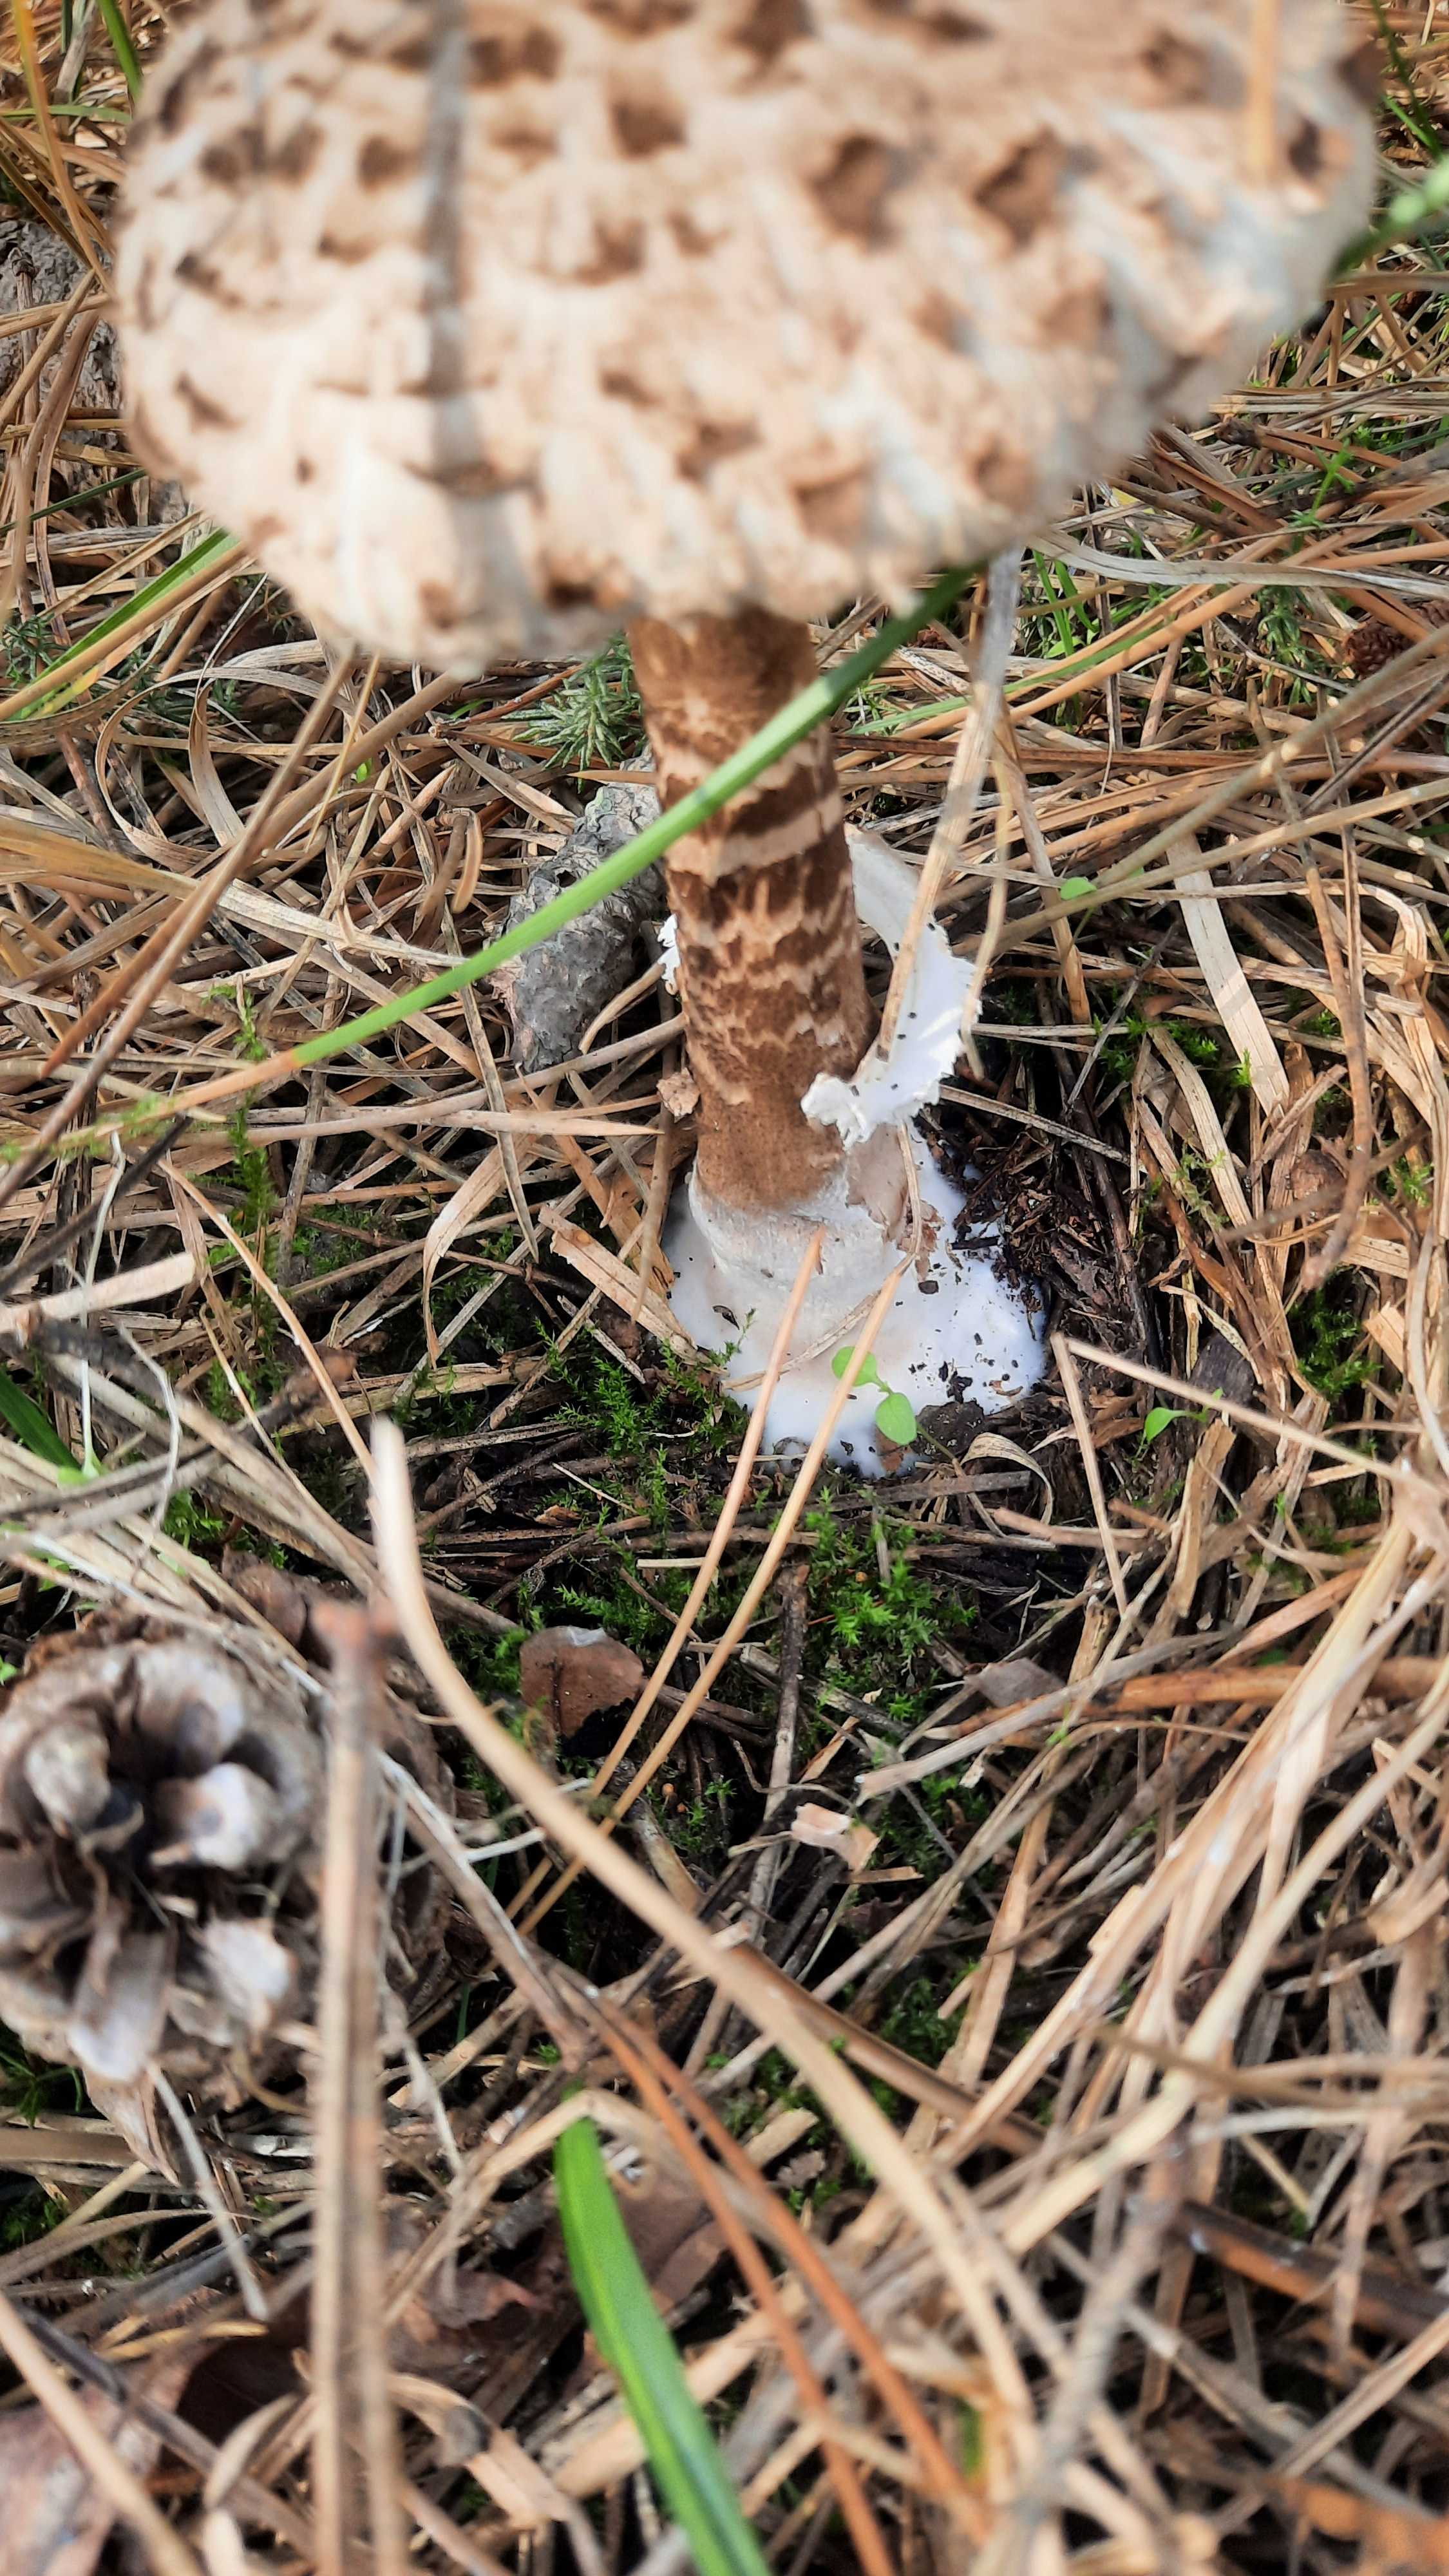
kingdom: Fungi
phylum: Basidiomycota
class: Agaricomycetes
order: Agaricales
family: Agaricaceae
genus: Macrolepiota
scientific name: Macrolepiota procera
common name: stor kæmpeparasolhat
